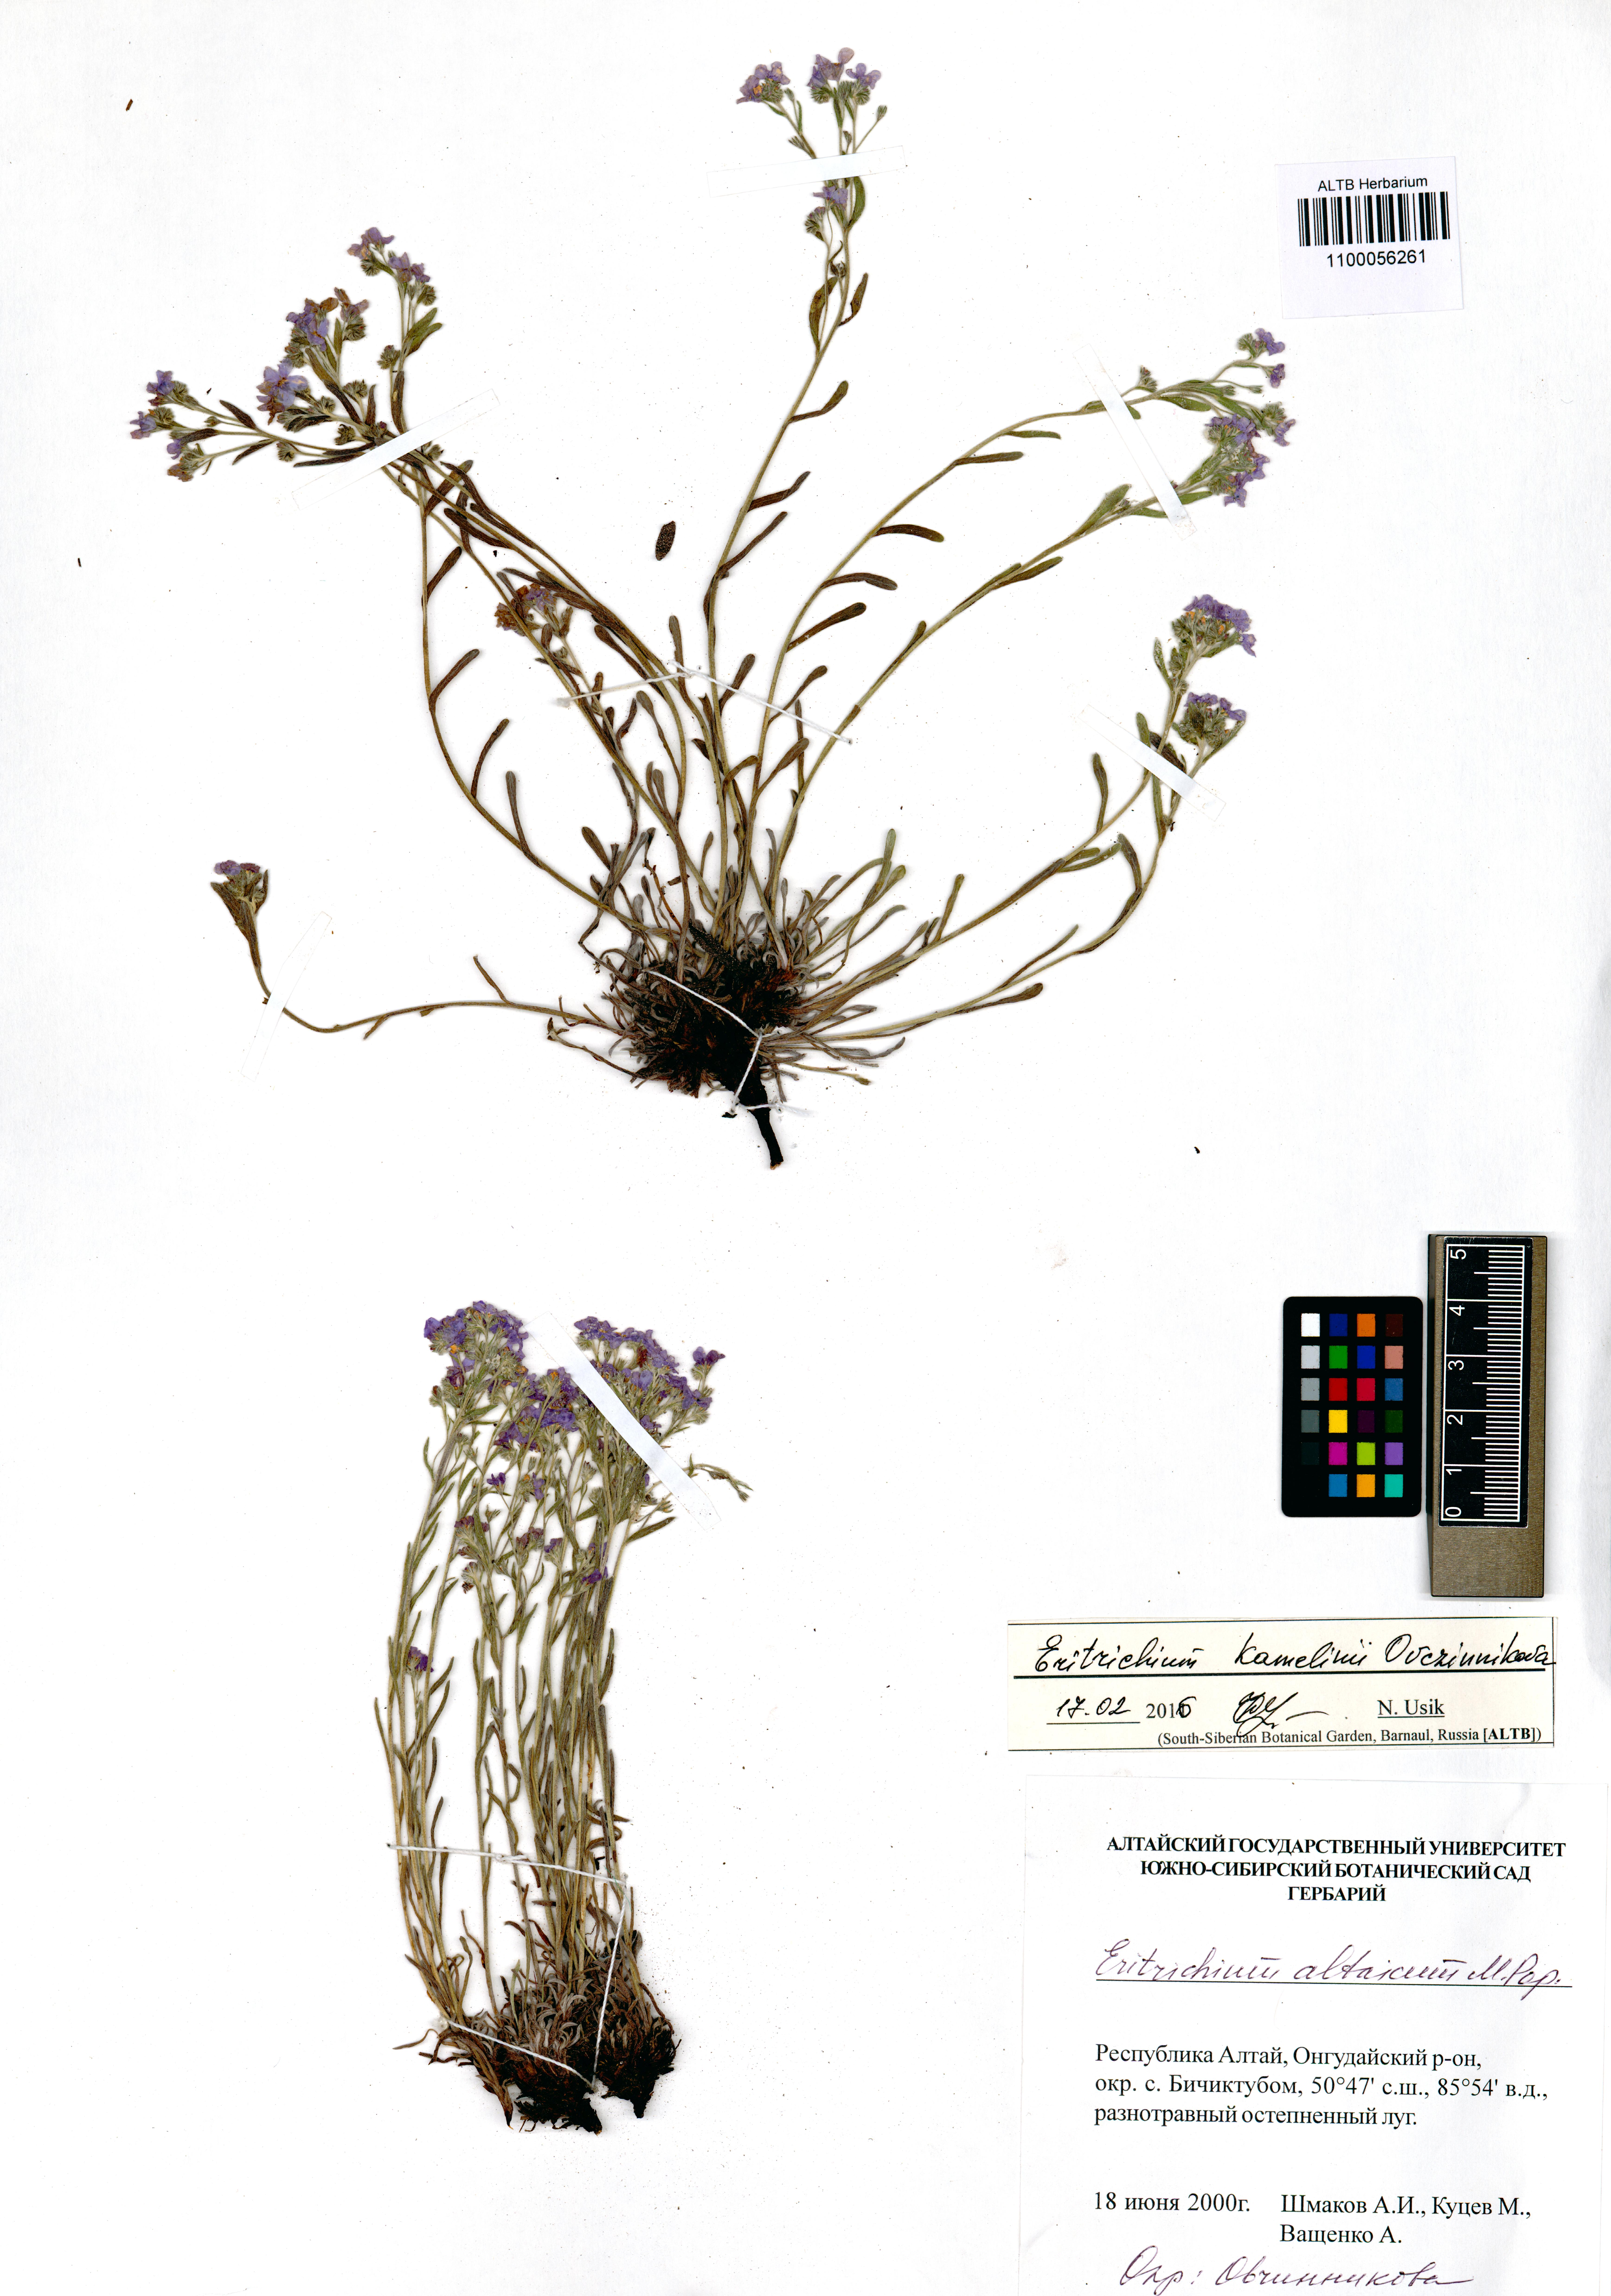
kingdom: Plantae
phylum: Tracheophyta
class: Magnoliopsida
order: Boraginales
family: Boraginaceae
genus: Eritrichium
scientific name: Eritrichium kamelinii
